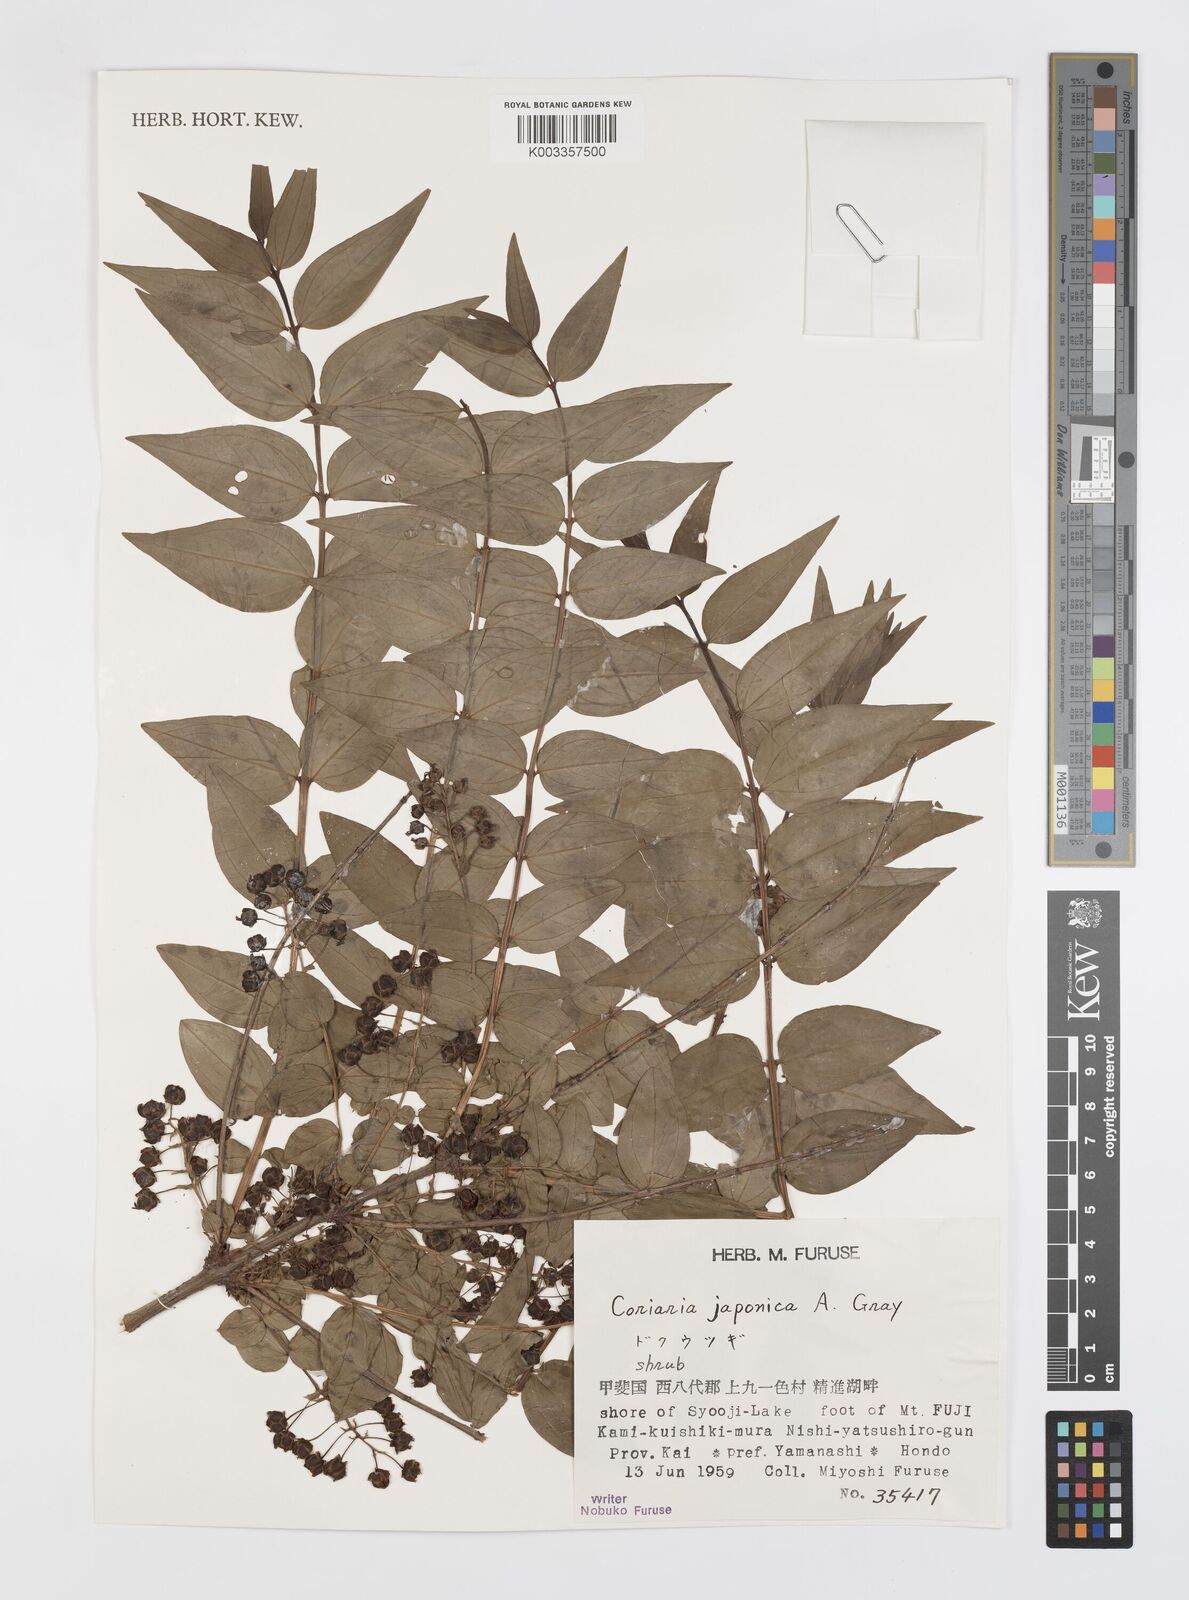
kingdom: Plantae
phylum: Tracheophyta
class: Magnoliopsida
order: Cucurbitales
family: Coriariaceae
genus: Coriaria
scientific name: Coriaria japonica
